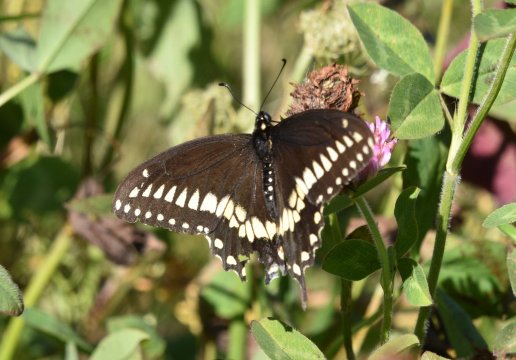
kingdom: Animalia
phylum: Arthropoda
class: Insecta
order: Lepidoptera
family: Papilionidae
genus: Papilio
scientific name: Papilio polyxenes
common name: Black Swallowtail
